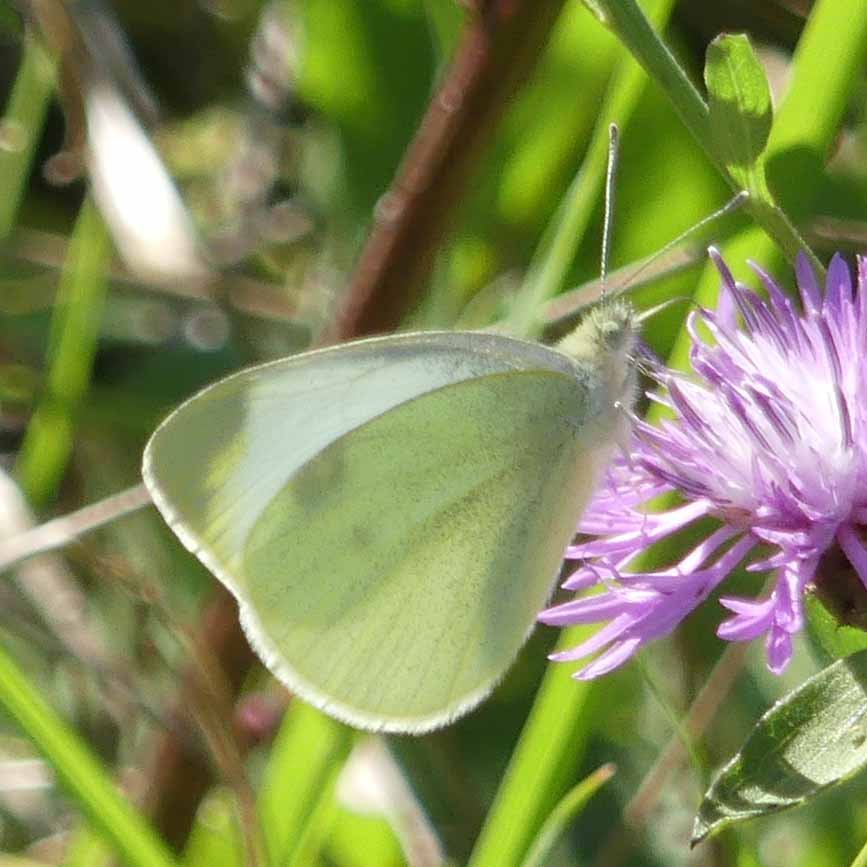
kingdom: Animalia
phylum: Arthropoda
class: Insecta
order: Lepidoptera
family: Pieridae
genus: Pieris
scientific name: Pieris rapae
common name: Cabbage White
